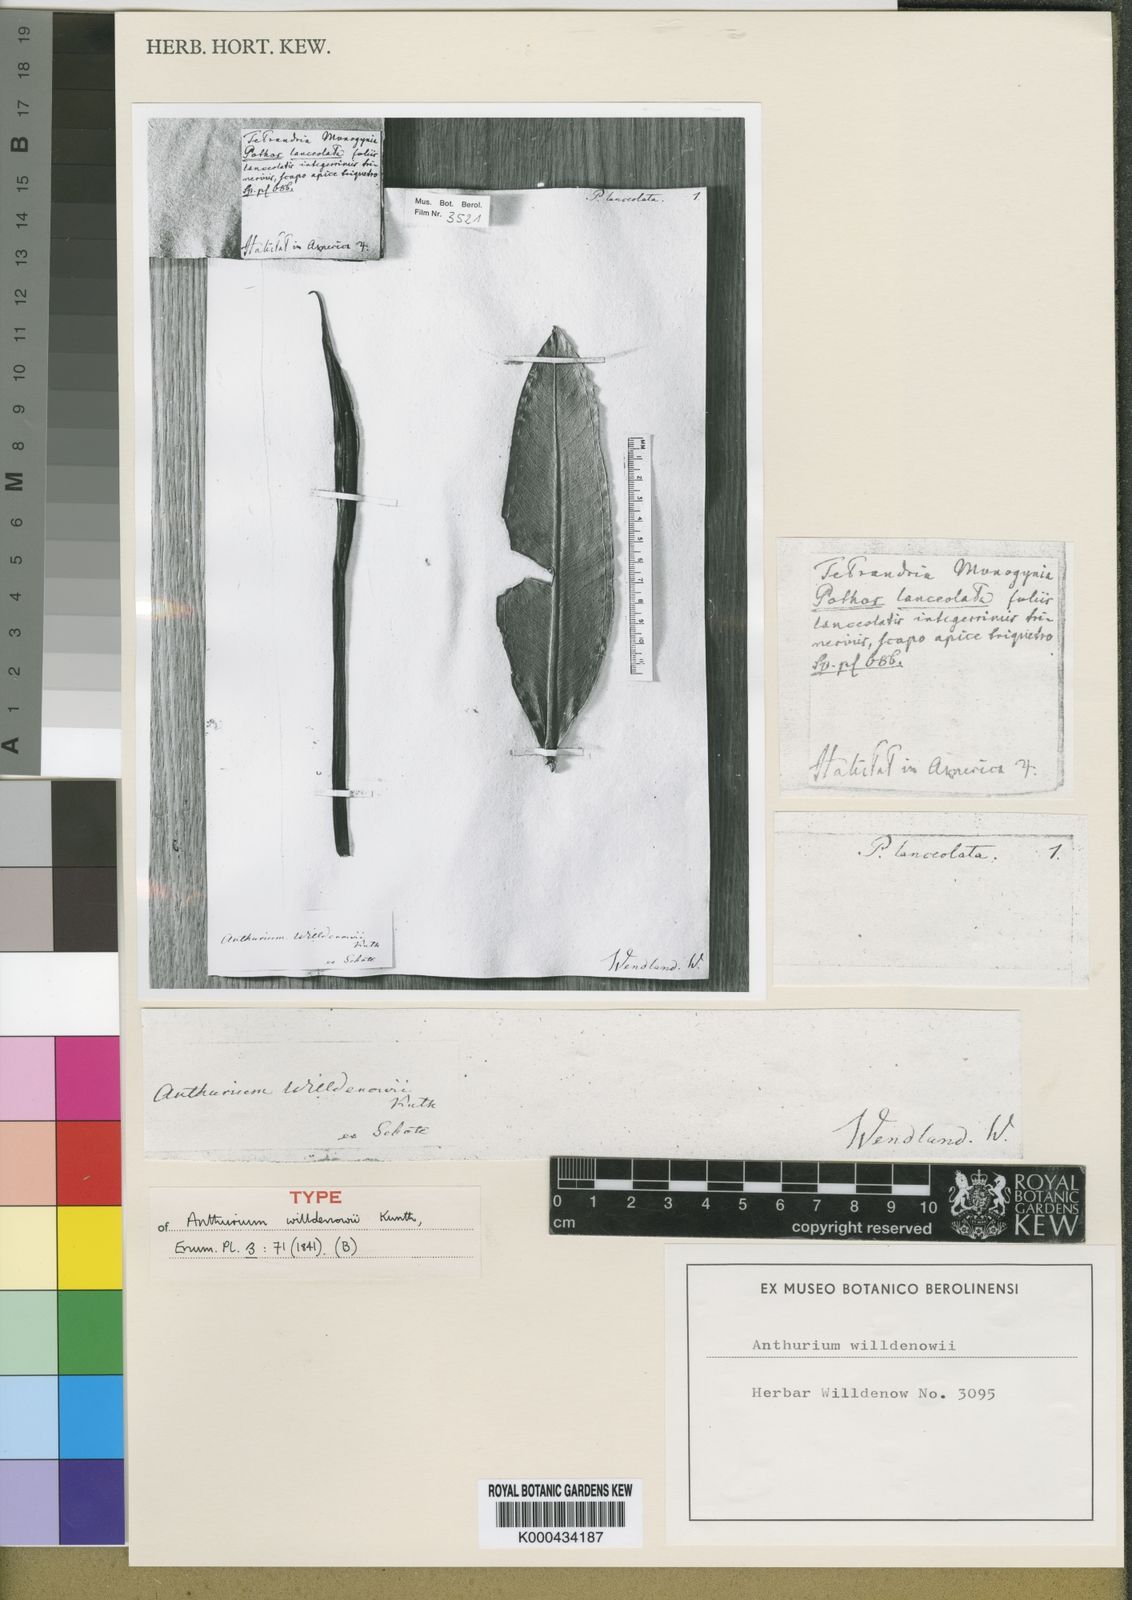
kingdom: Plantae
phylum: Tracheophyta
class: Liliopsida
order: Alismatales
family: Araceae
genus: Anthurium
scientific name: Anthurium willdenowii
